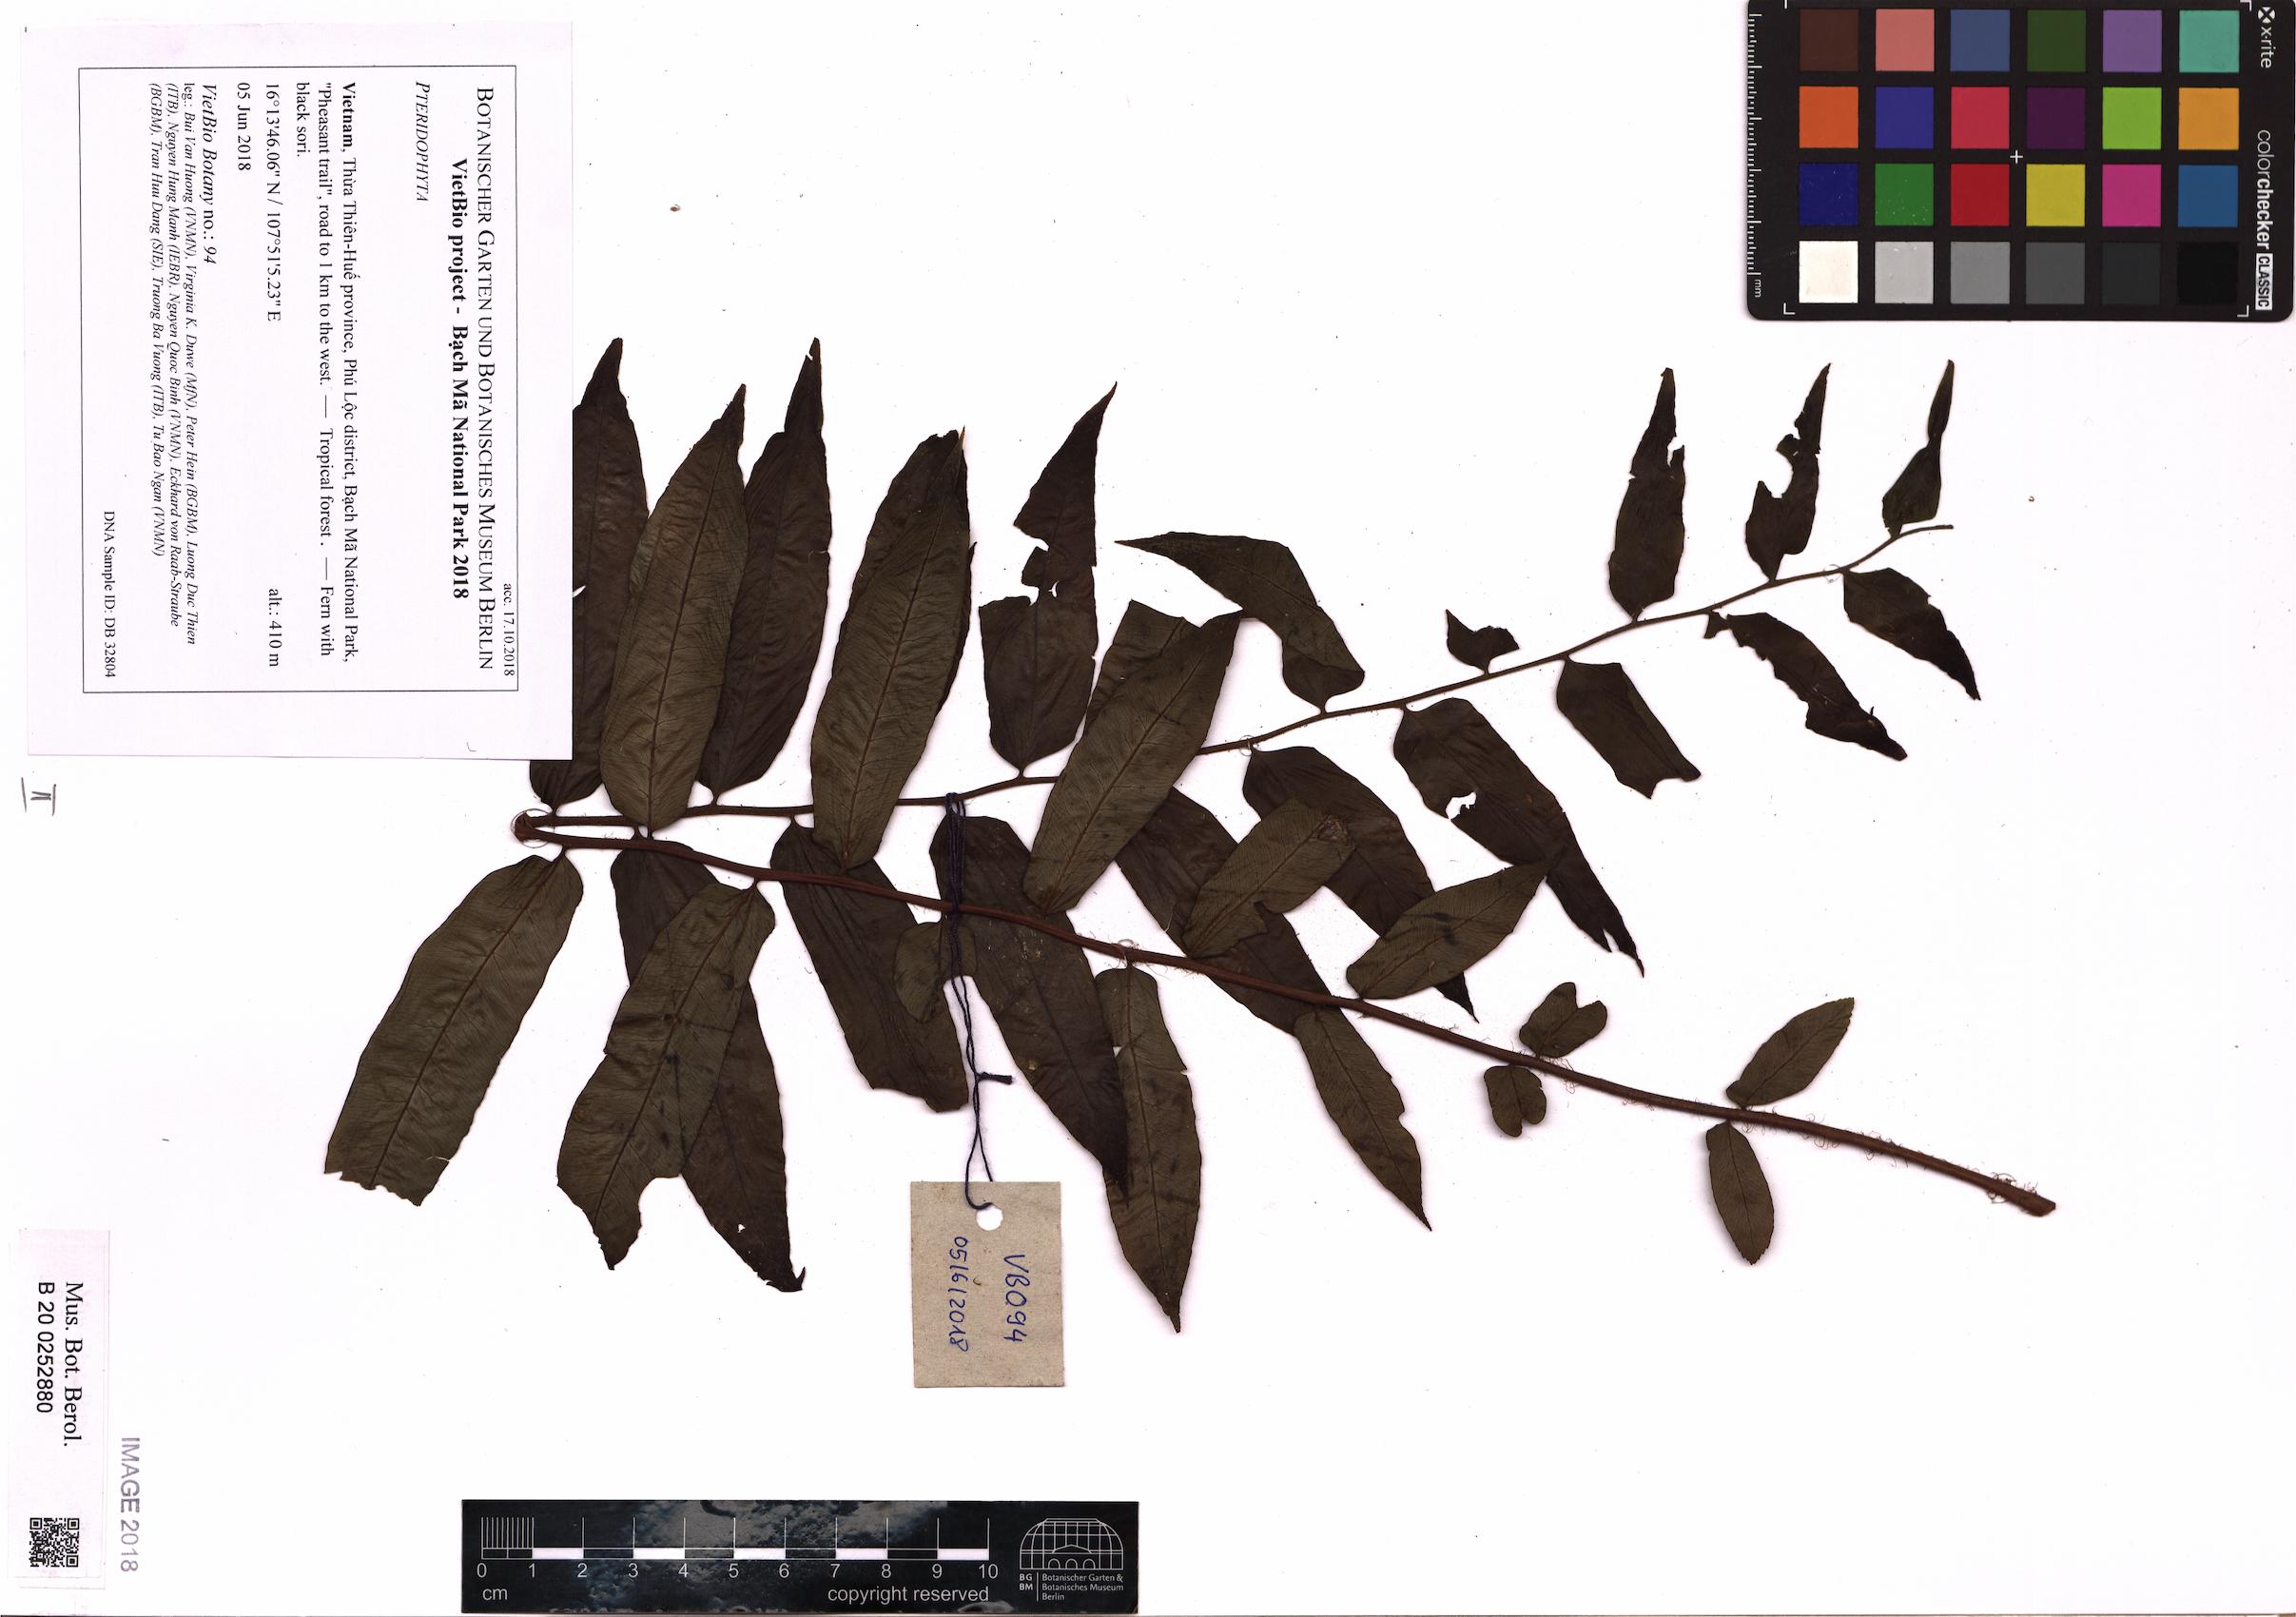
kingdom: Plantae
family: Pteridophyta
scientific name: Pteridophyta
